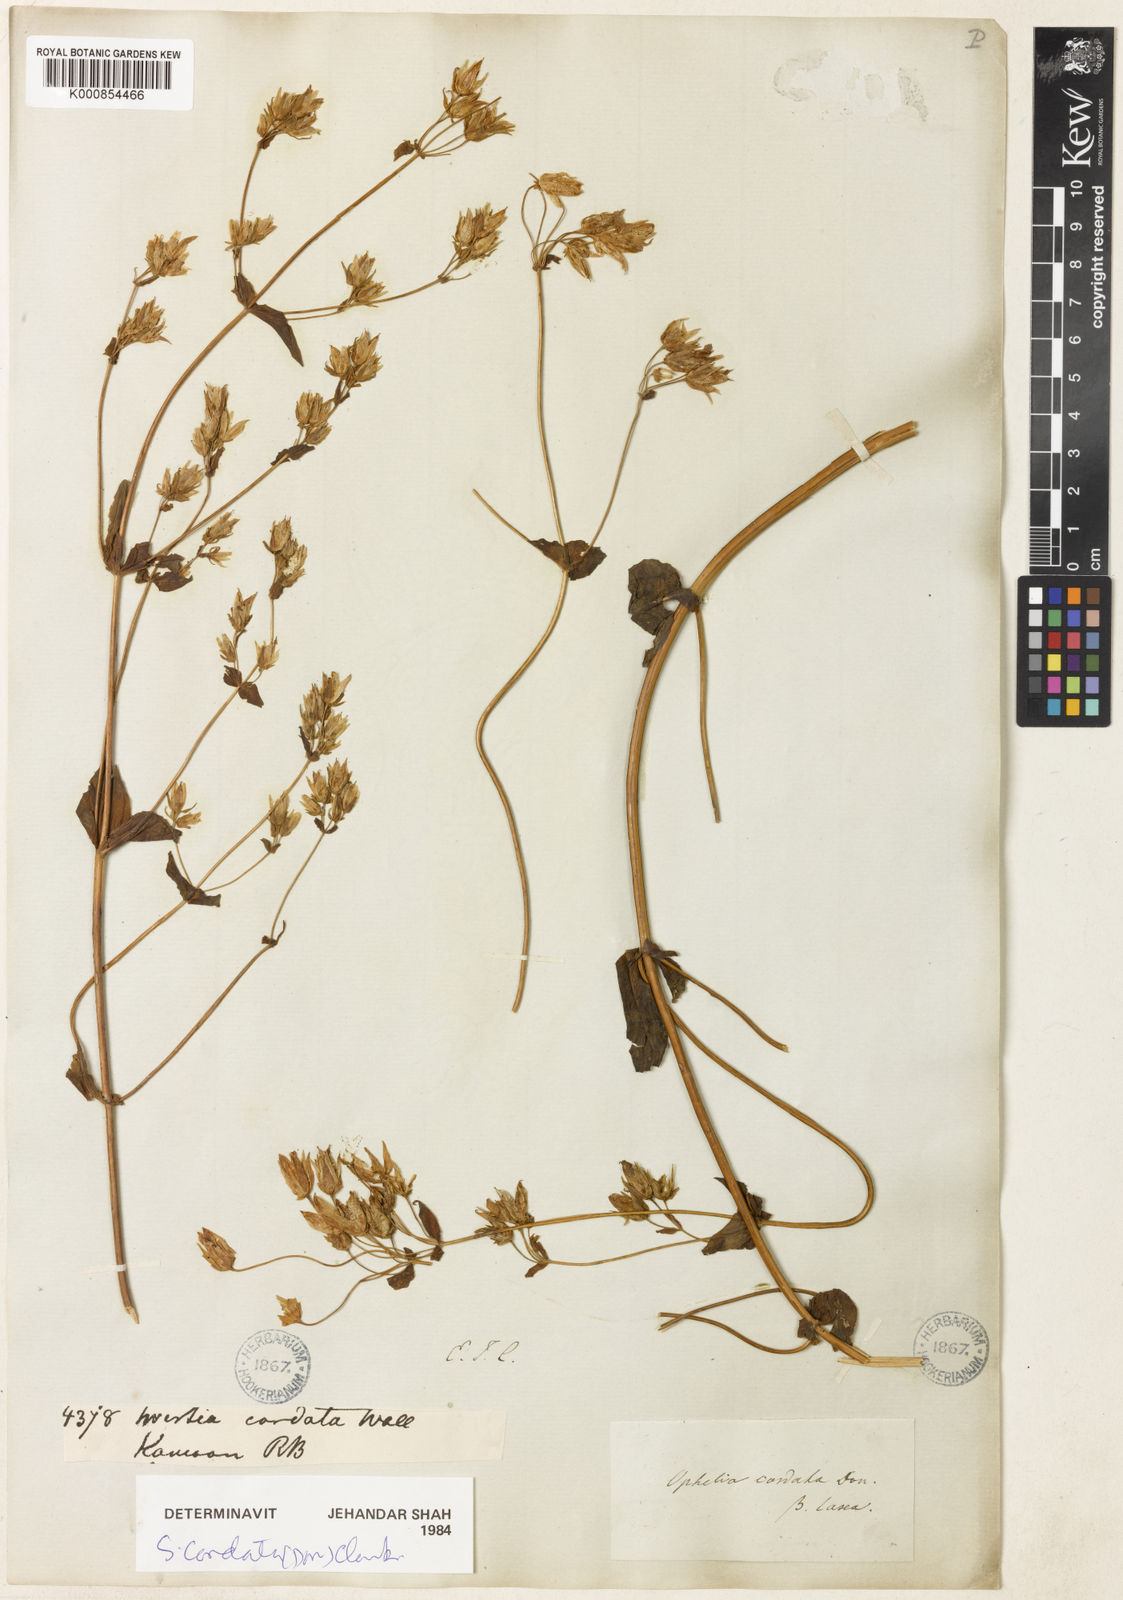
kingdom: Plantae
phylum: Tracheophyta
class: Magnoliopsida
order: Gentianales
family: Gentianaceae
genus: Swertia
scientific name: Swertia cordata
